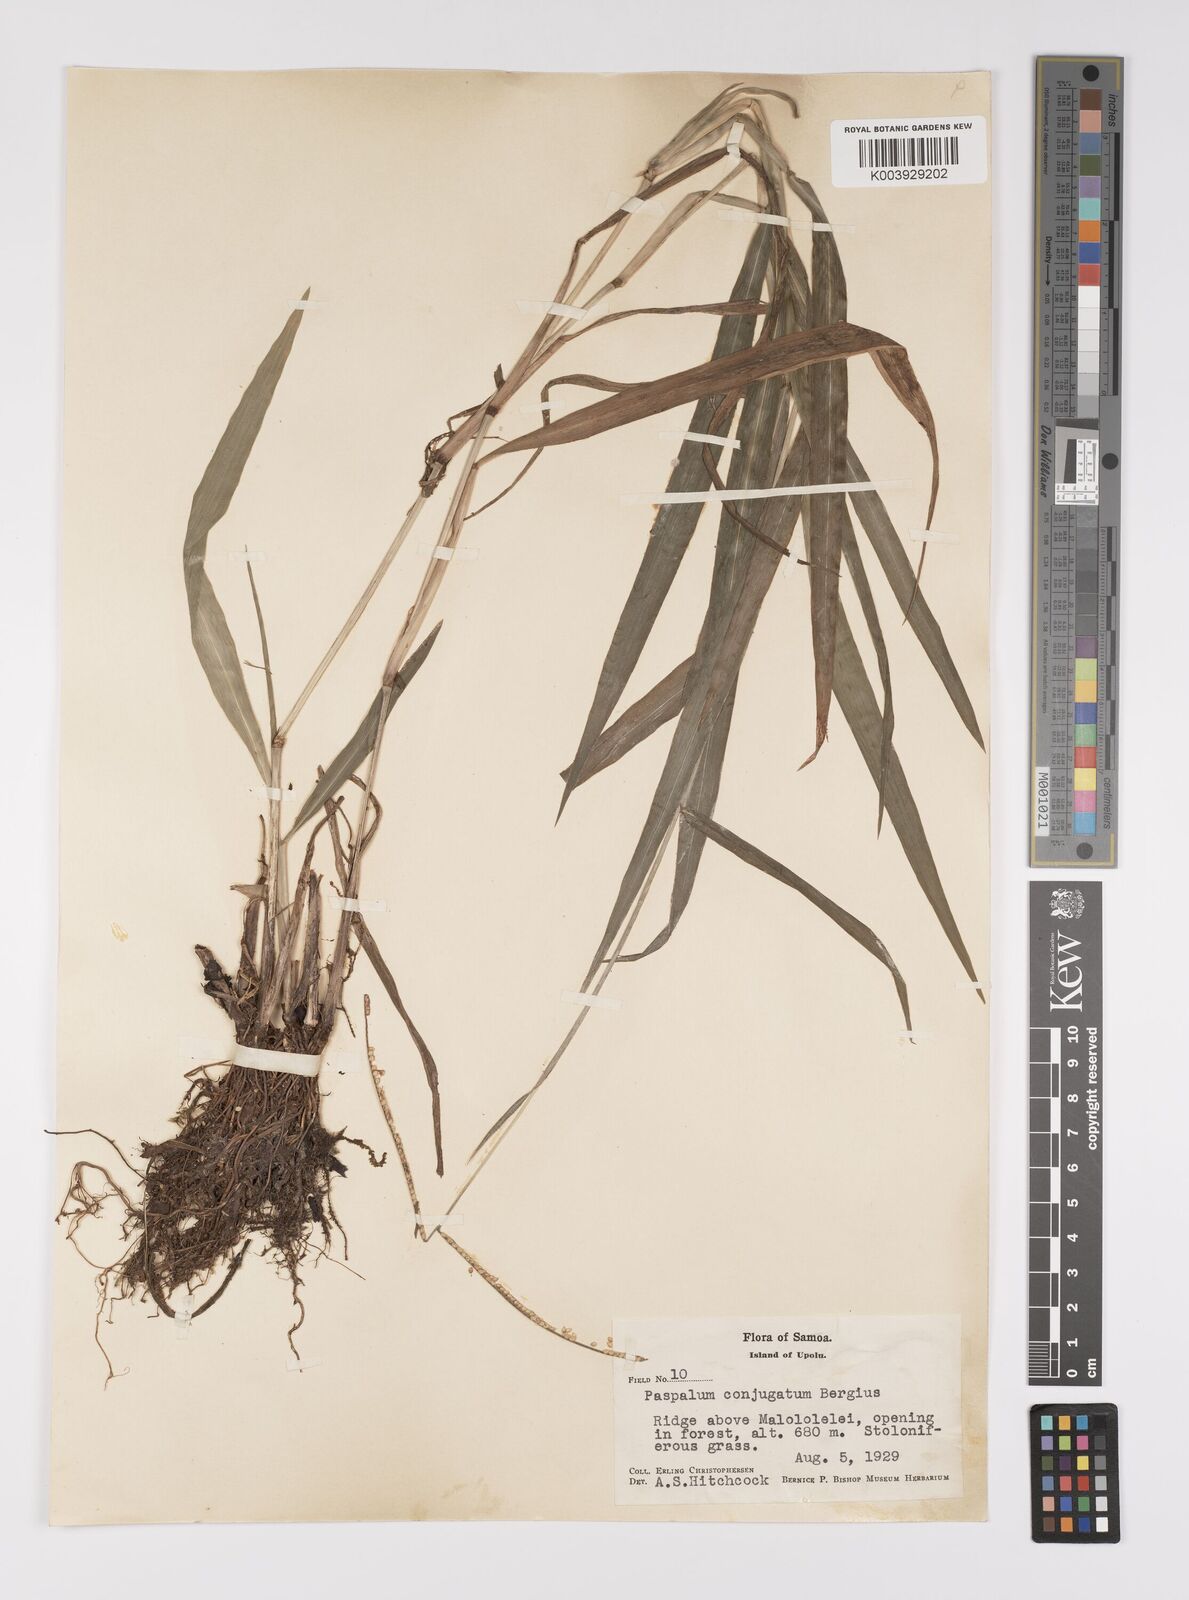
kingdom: Plantae
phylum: Tracheophyta
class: Liliopsida
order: Poales
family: Poaceae
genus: Paspalum
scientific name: Paspalum conjugatum
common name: Hilograss
